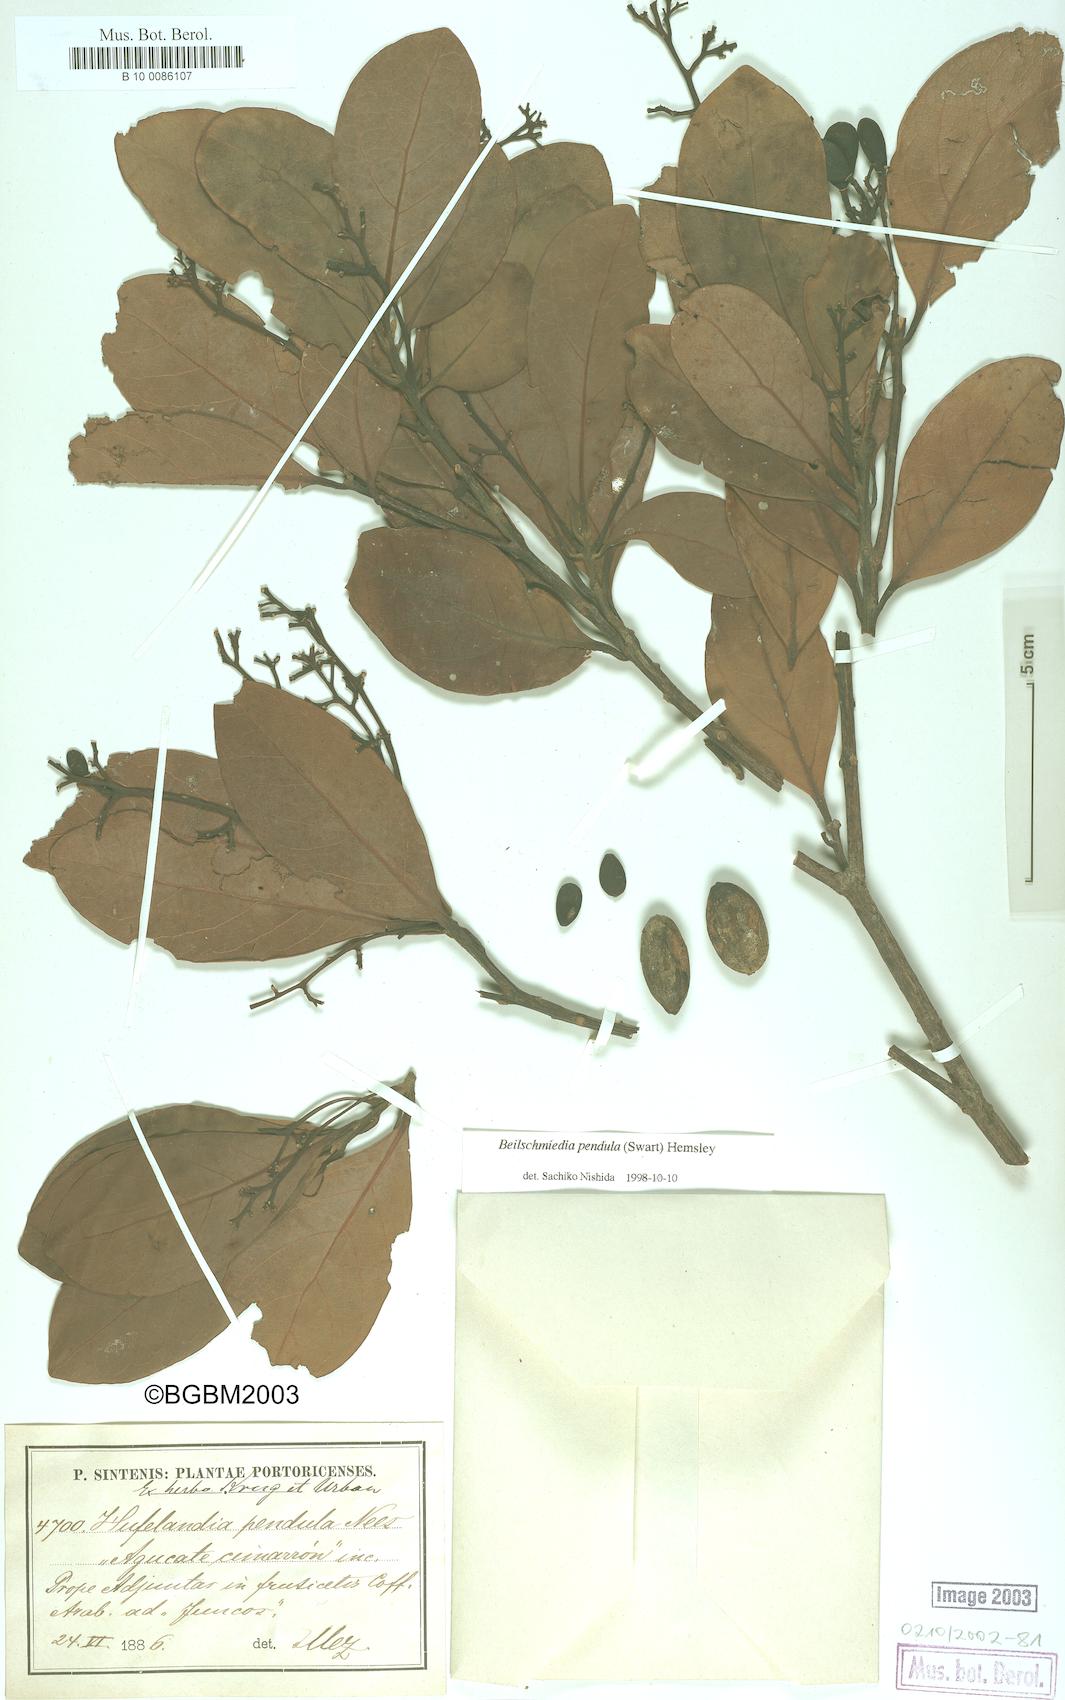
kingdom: Plantae
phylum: Tracheophyta
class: Magnoliopsida
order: Laurales
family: Lauraceae
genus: Beilschmiedia
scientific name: Beilschmiedia pendula
